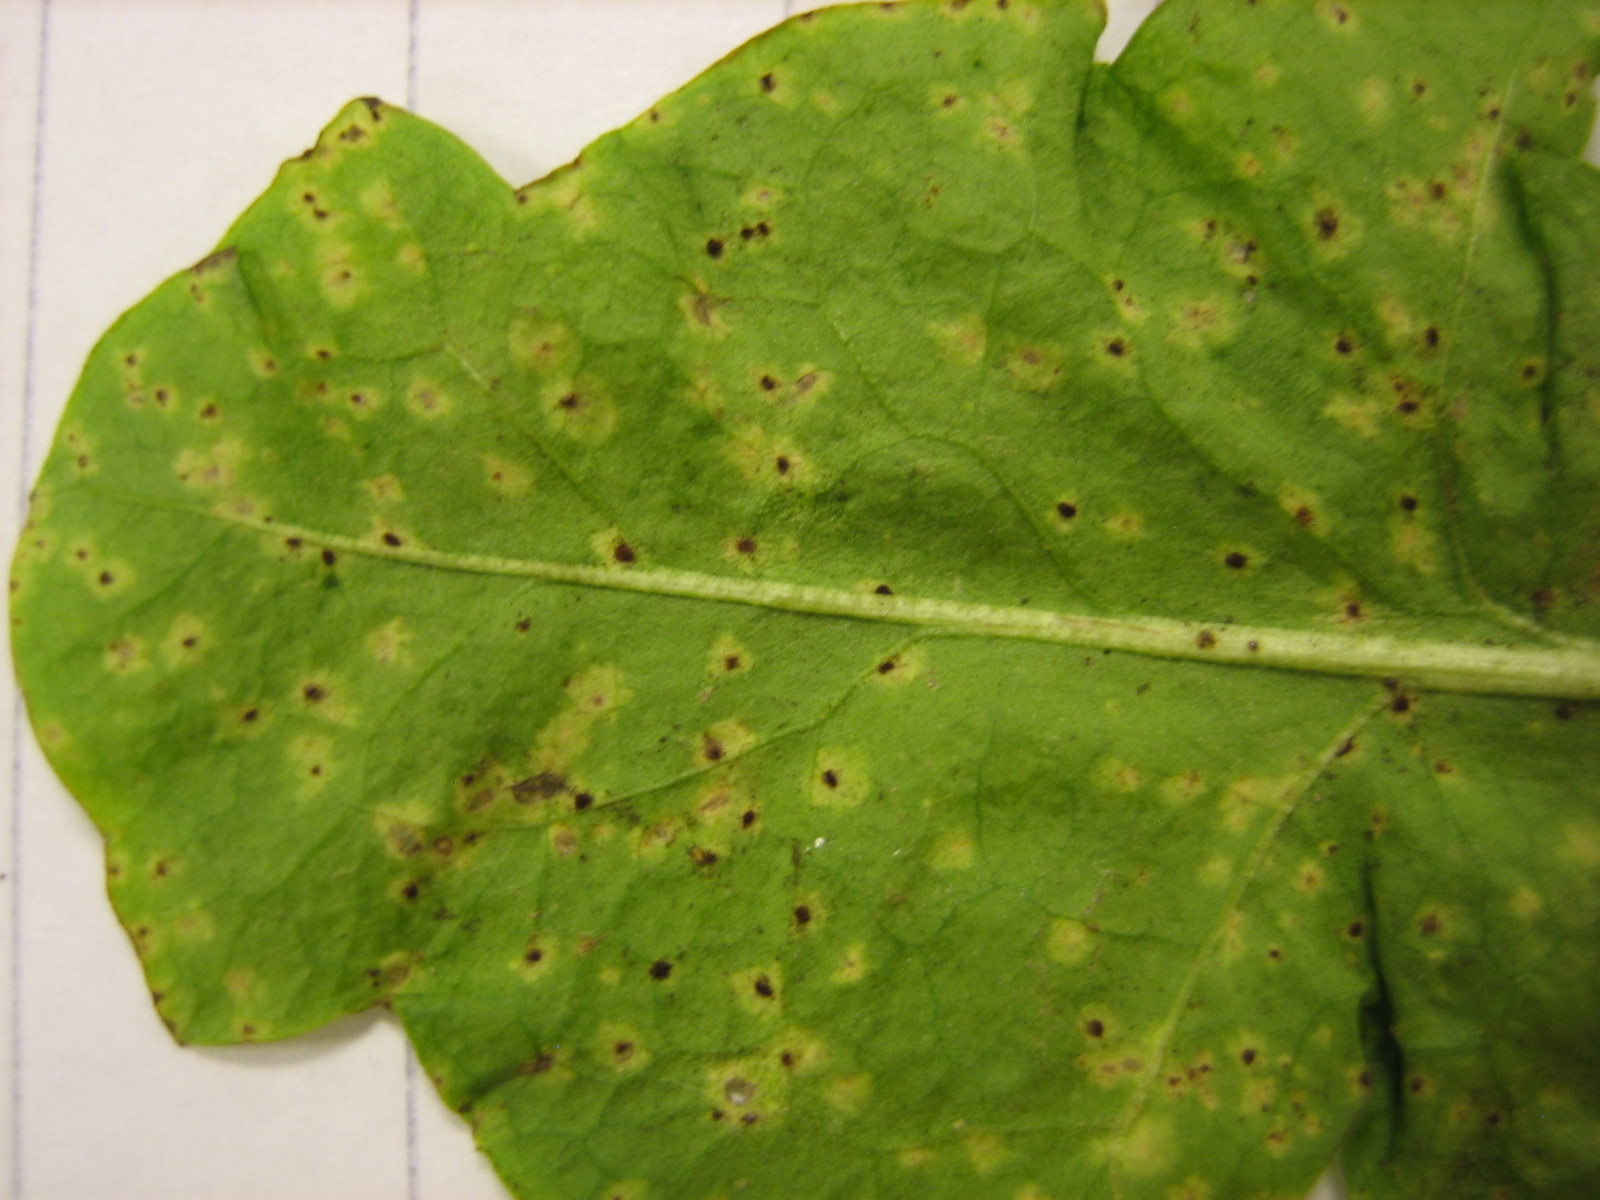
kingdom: Fungi
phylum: Basidiomycota
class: Pucciniomycetes
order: Pucciniales
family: Pucciniaceae
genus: Puccinia
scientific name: Puccinia hieracii
